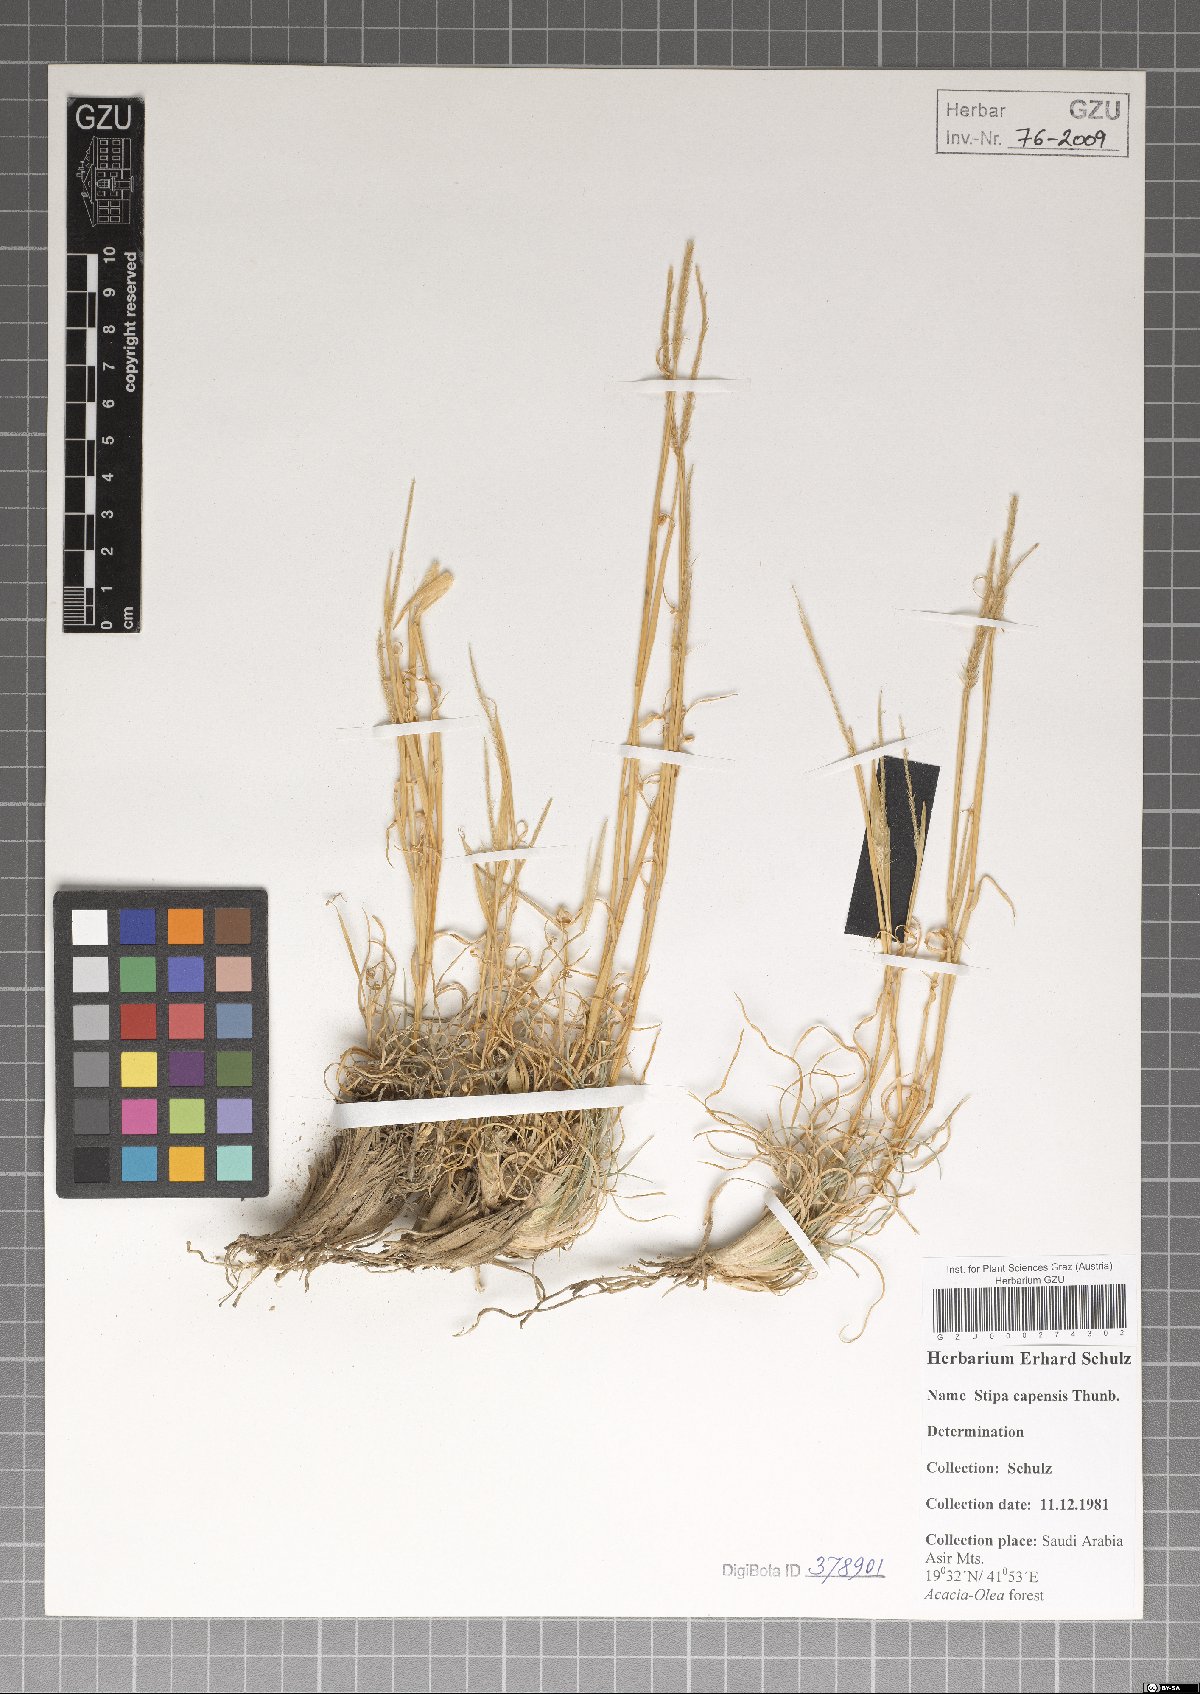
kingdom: Plantae
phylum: Tracheophyta
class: Liliopsida
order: Poales
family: Poaceae
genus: Stipellula
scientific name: Stipellula capensis
